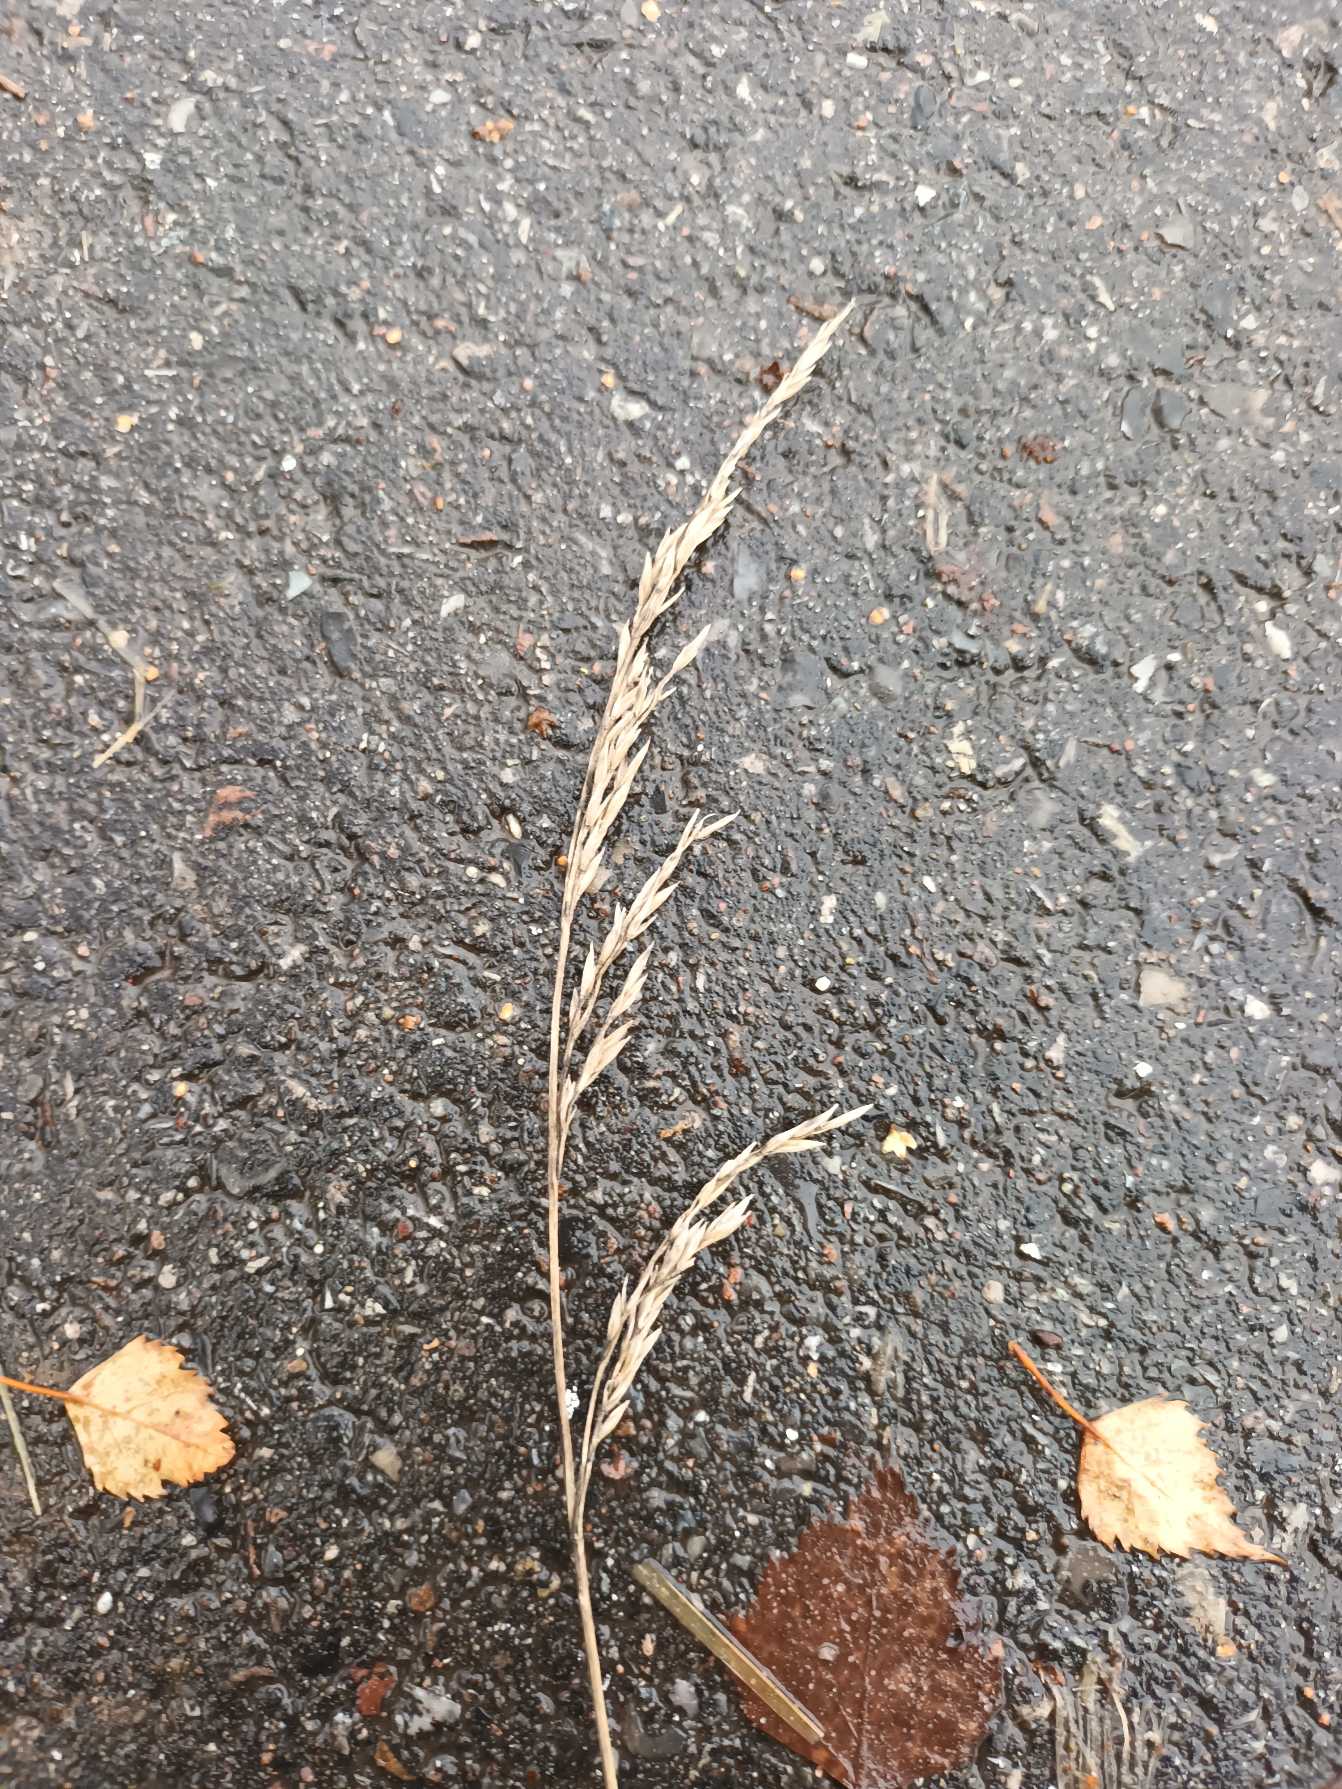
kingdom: Plantae
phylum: Tracheophyta
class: Liliopsida
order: Poales
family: Poaceae
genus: Lolium
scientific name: Lolium arundinaceum
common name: Strand-svingel
